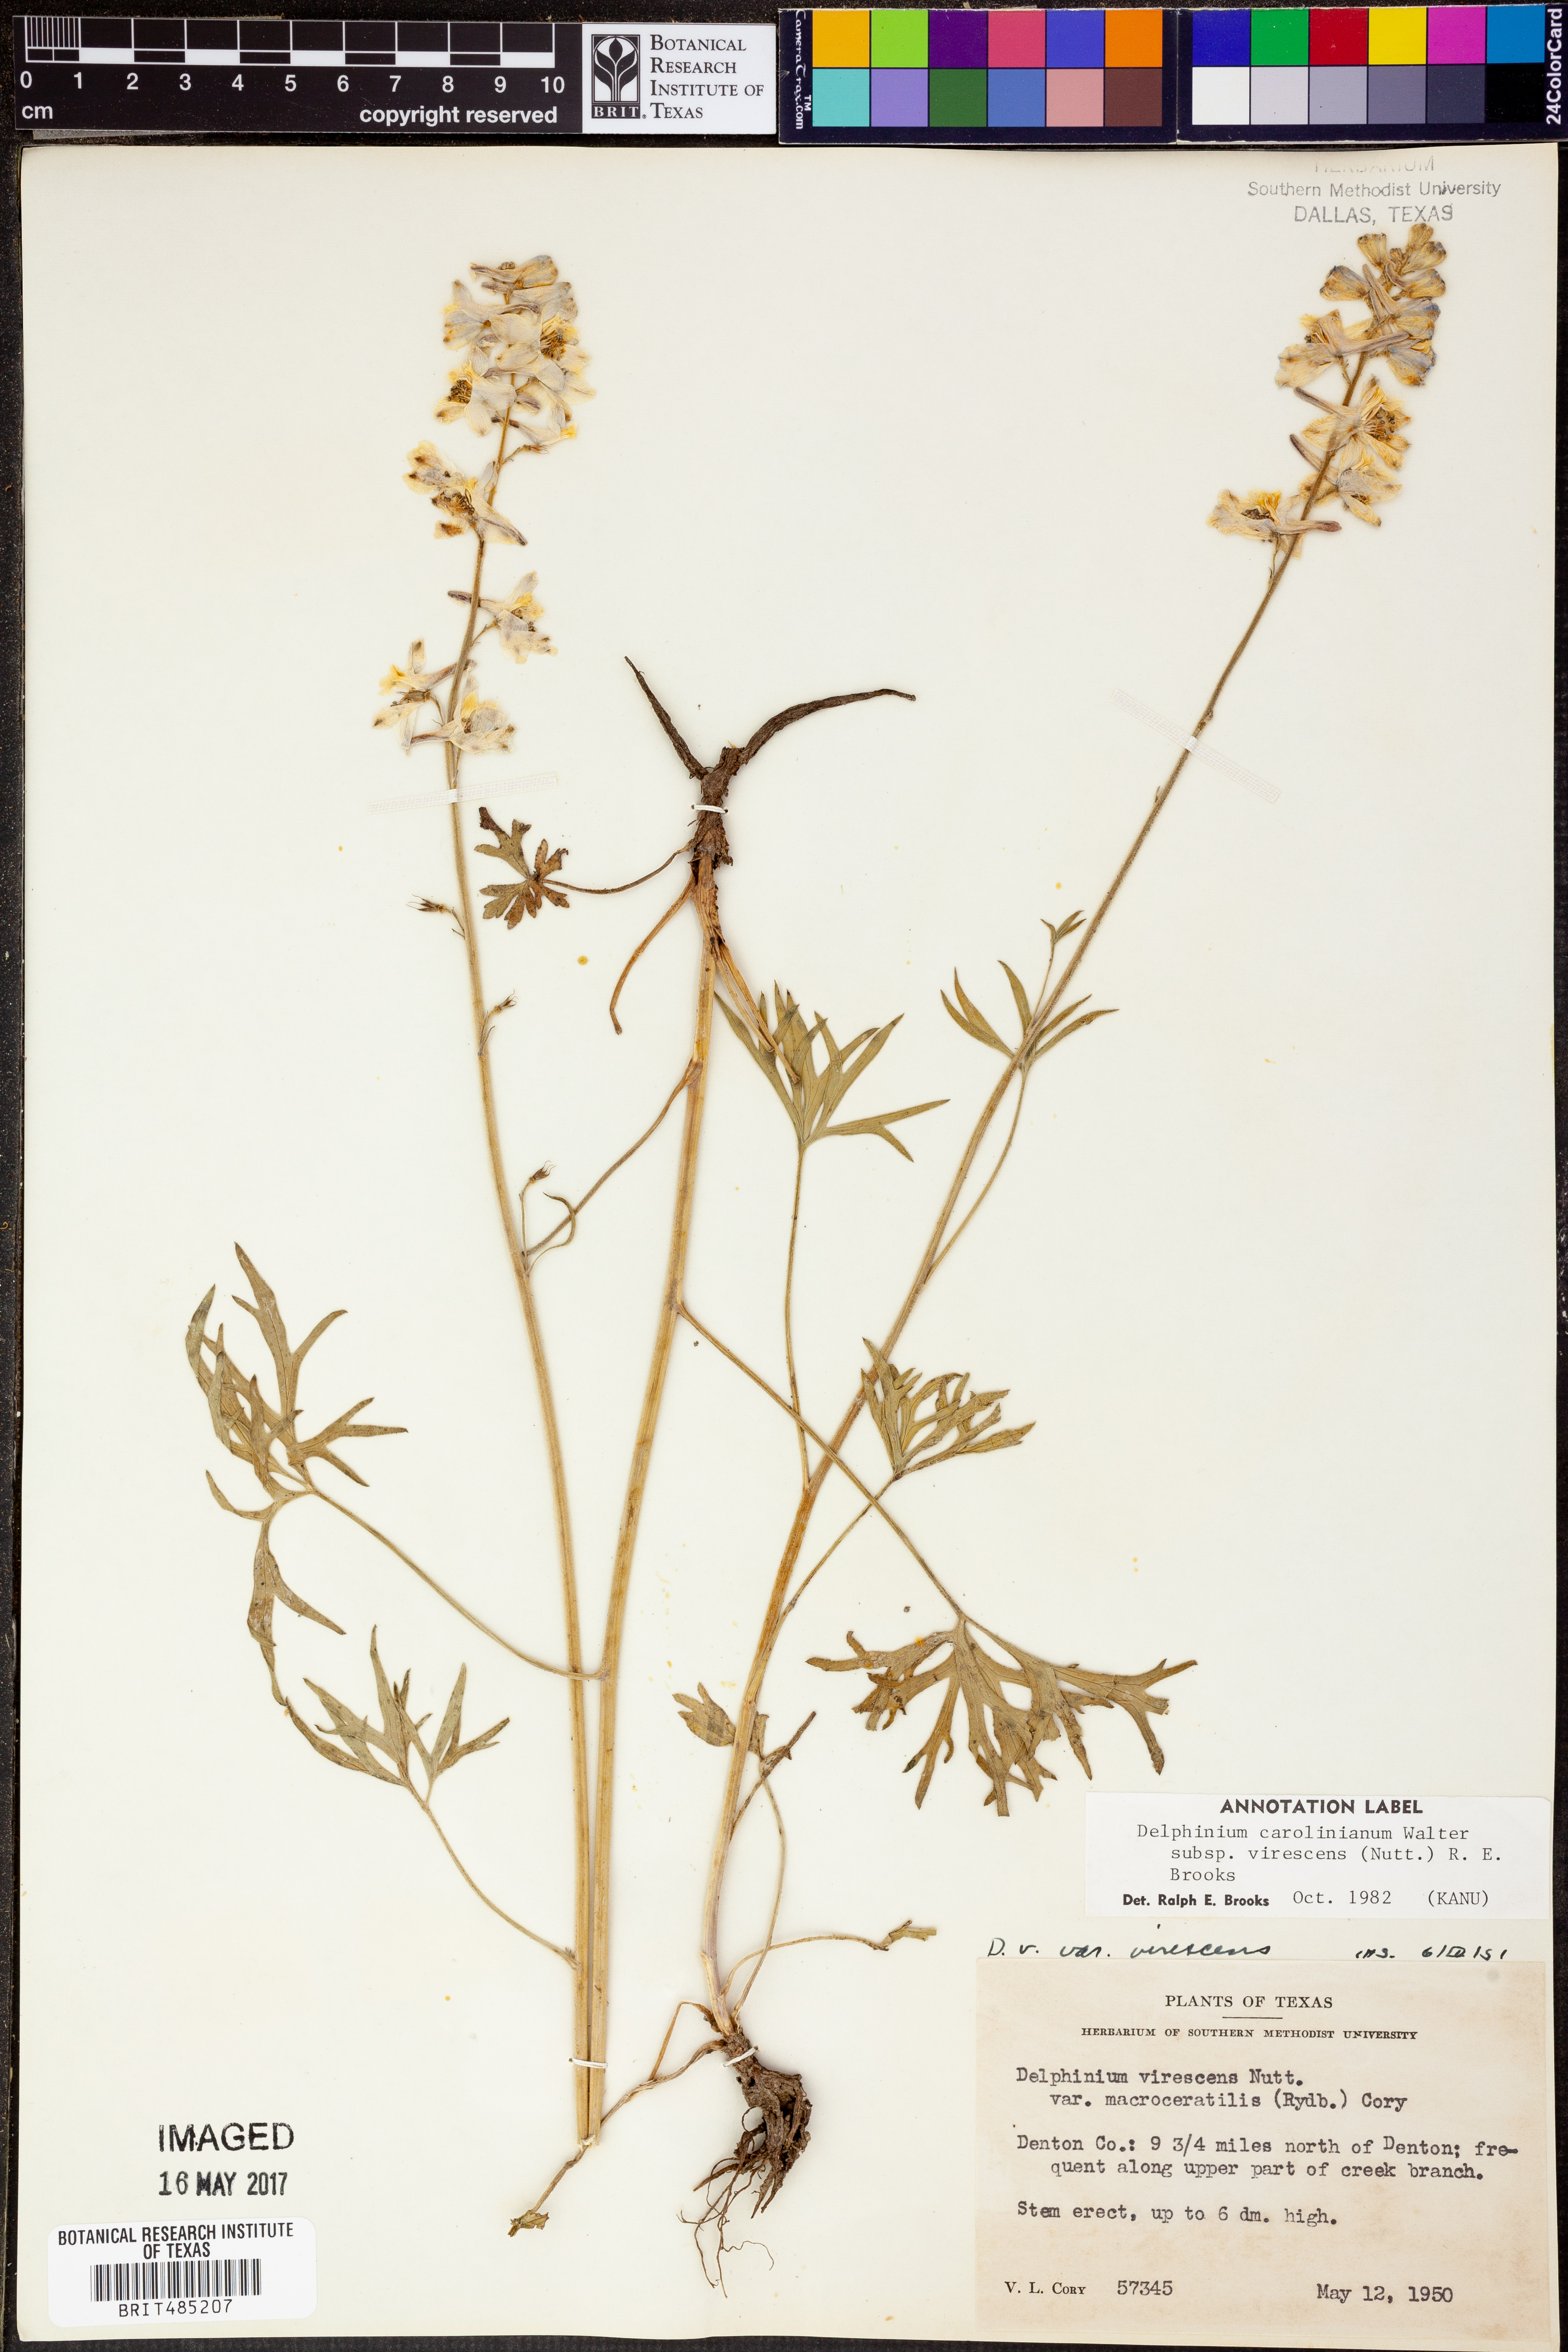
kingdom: Plantae
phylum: Tracheophyta
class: Magnoliopsida
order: Ranunculales
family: Ranunculaceae
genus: Delphinium
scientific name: Delphinium carolinianum
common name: Carolina larkspur
